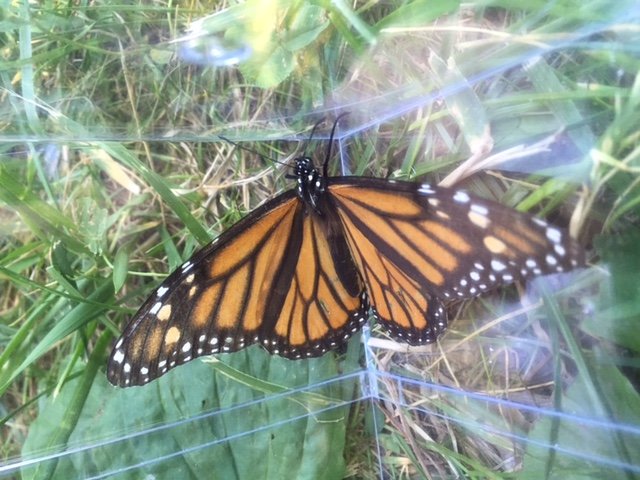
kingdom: Animalia
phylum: Arthropoda
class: Insecta
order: Lepidoptera
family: Nymphalidae
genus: Danaus
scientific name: Danaus plexippus
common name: Monarch
